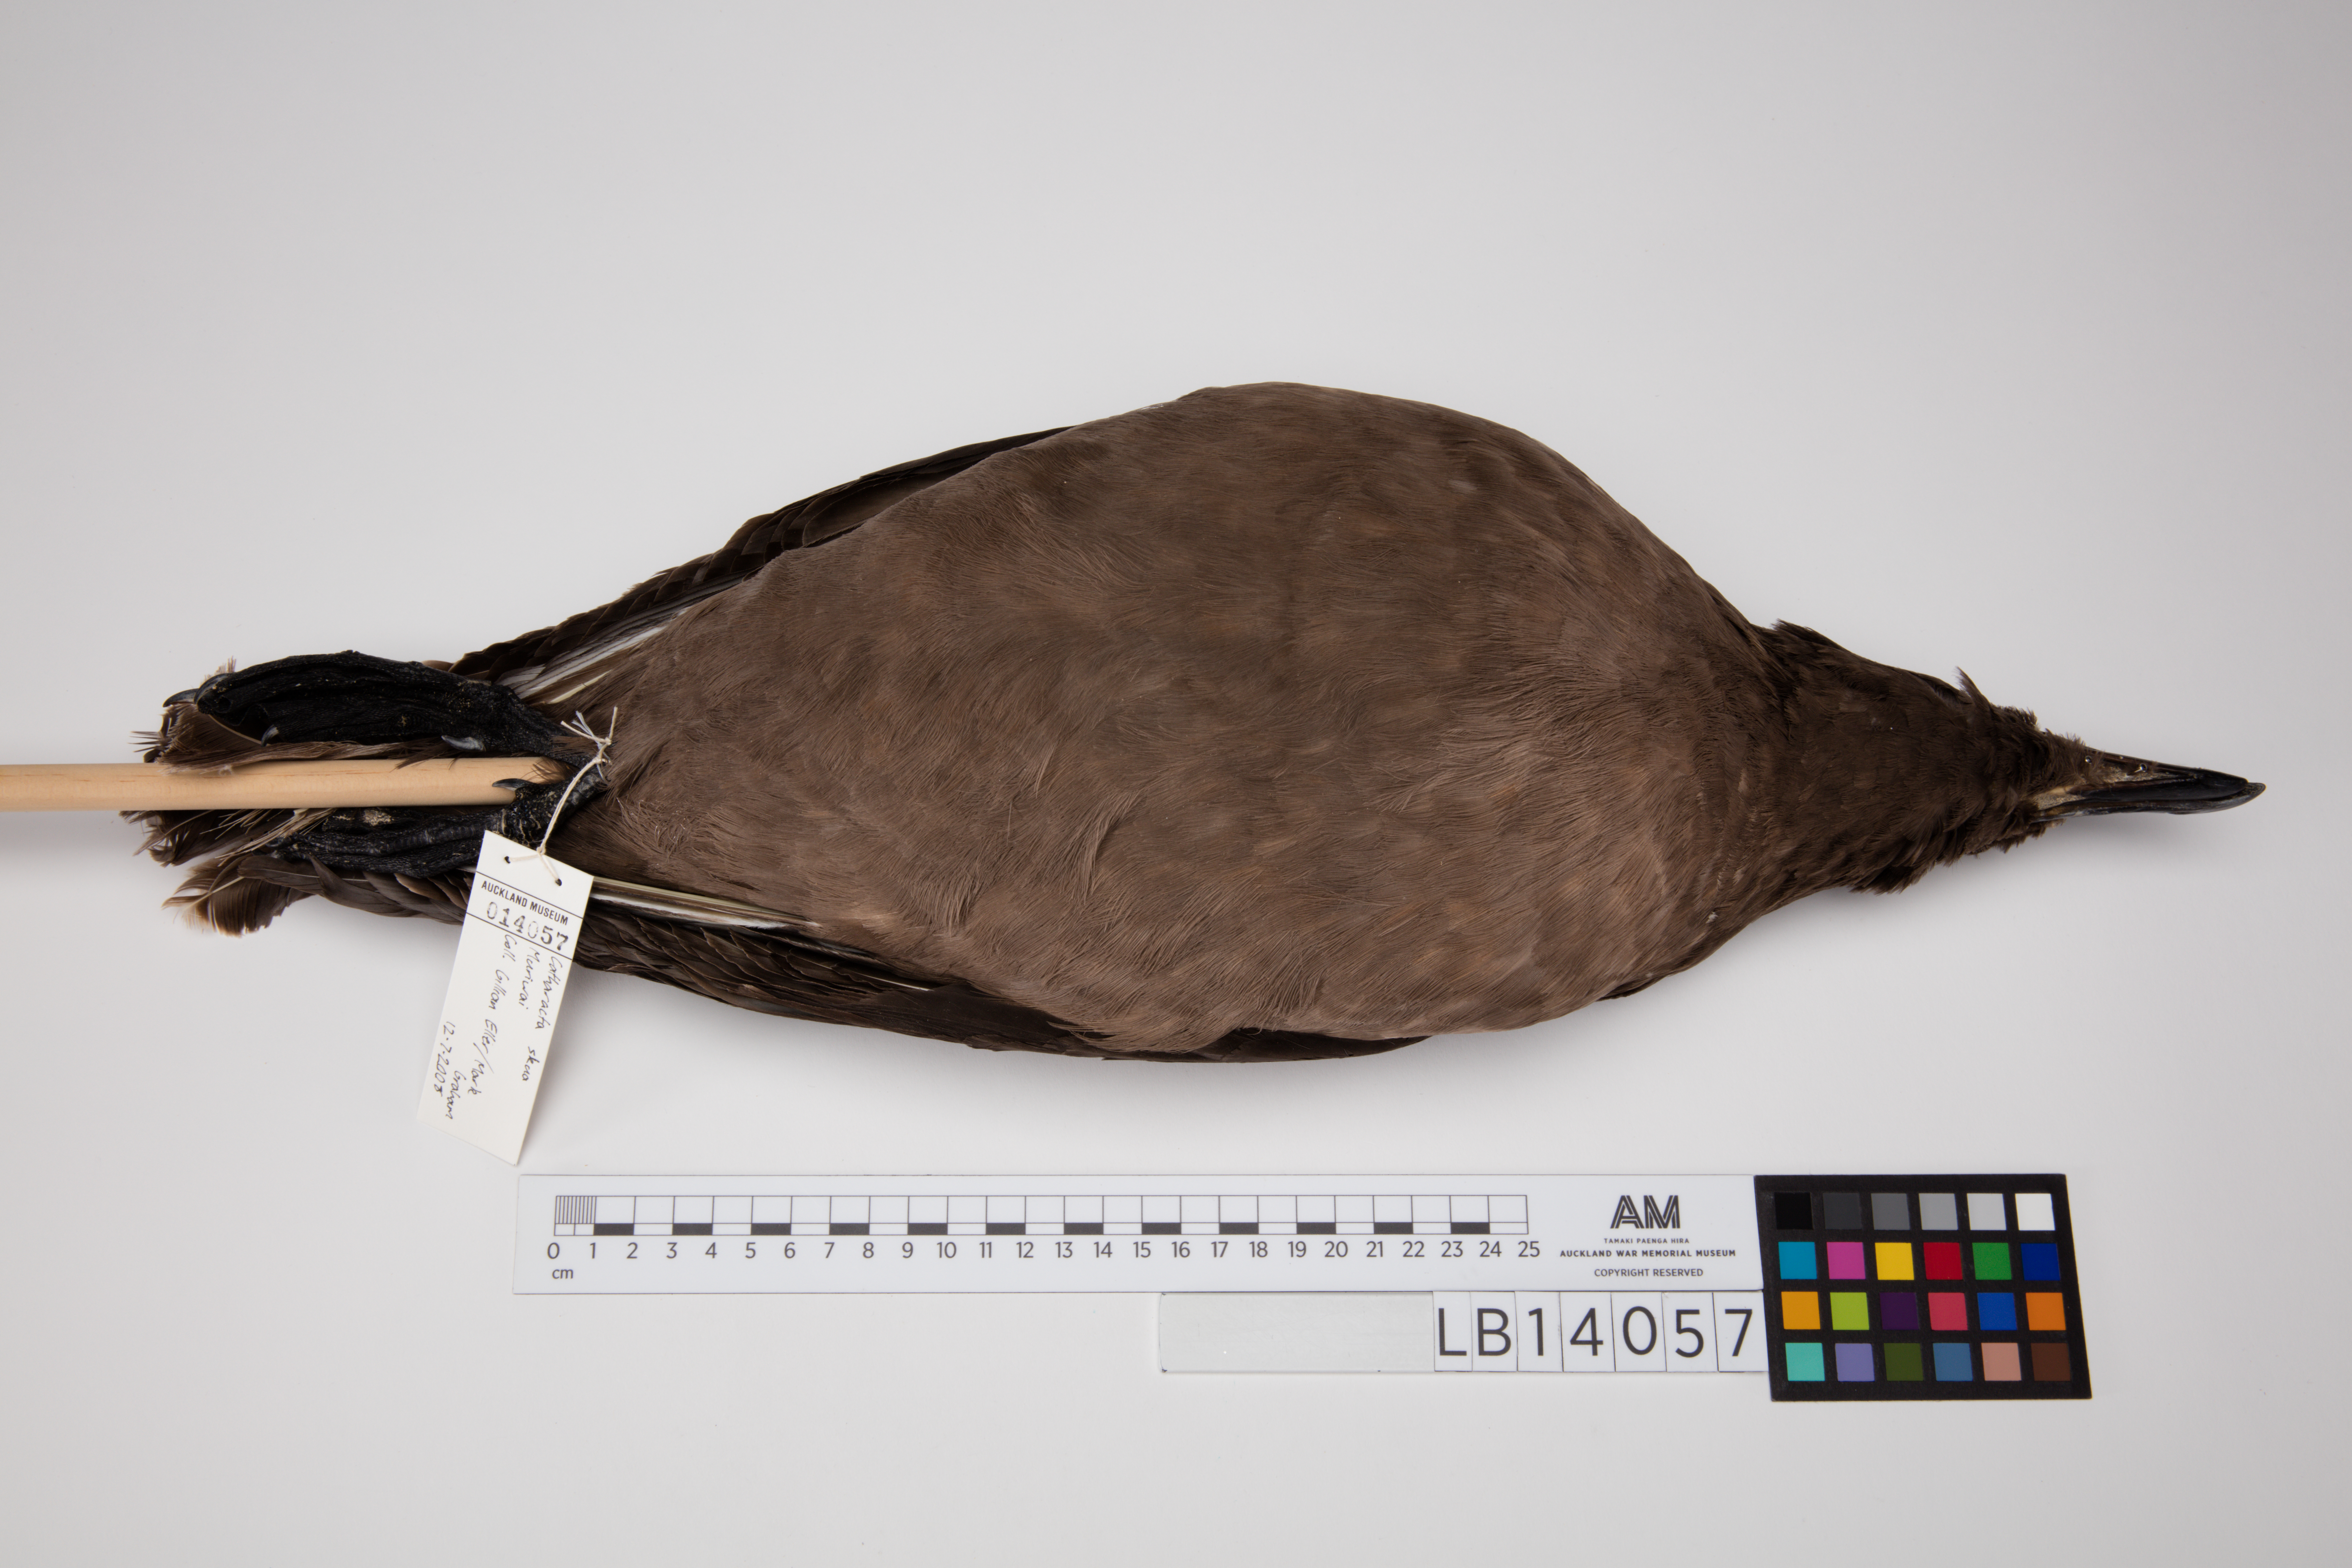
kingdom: Animalia
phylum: Chordata
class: Aves
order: Charadriiformes
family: Stercorariidae
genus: Stercorarius
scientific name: Stercorarius antarcticus
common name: Brown skua
